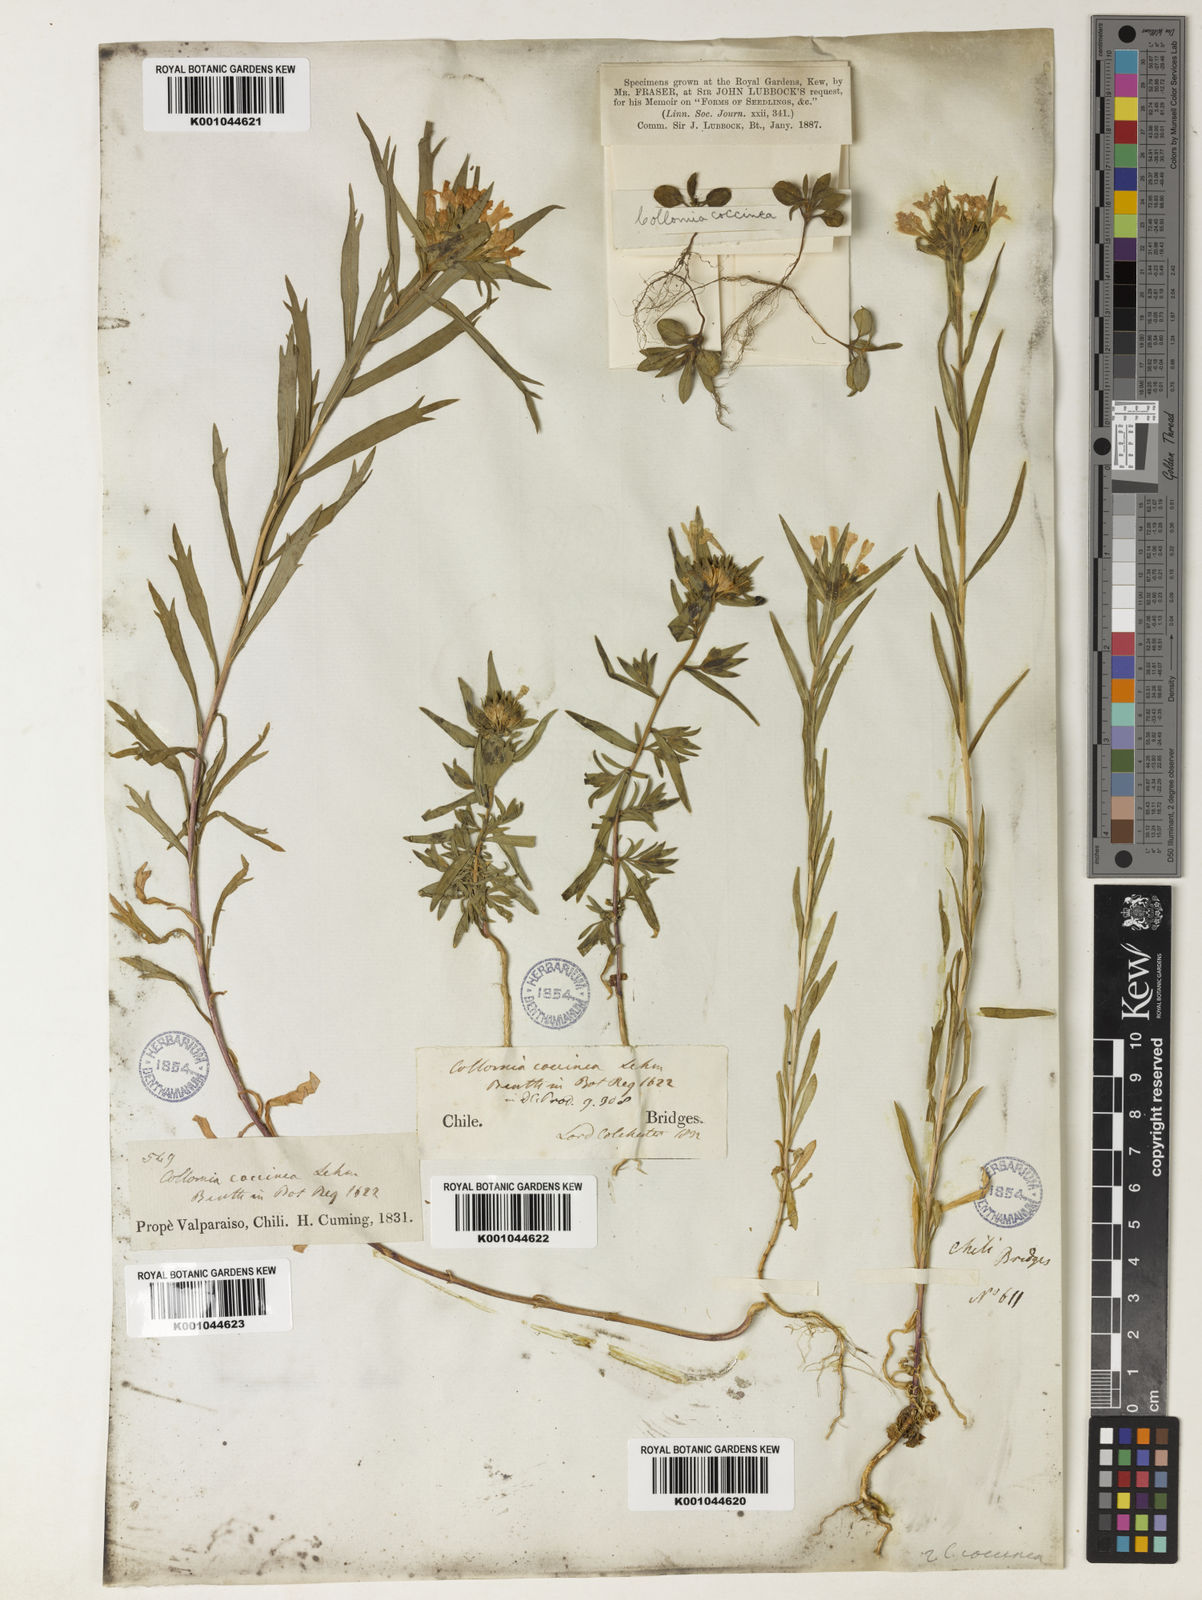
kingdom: Plantae
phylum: Tracheophyta
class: Magnoliopsida
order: Ericales
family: Polemoniaceae
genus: Collomia
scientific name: Collomia biflora
